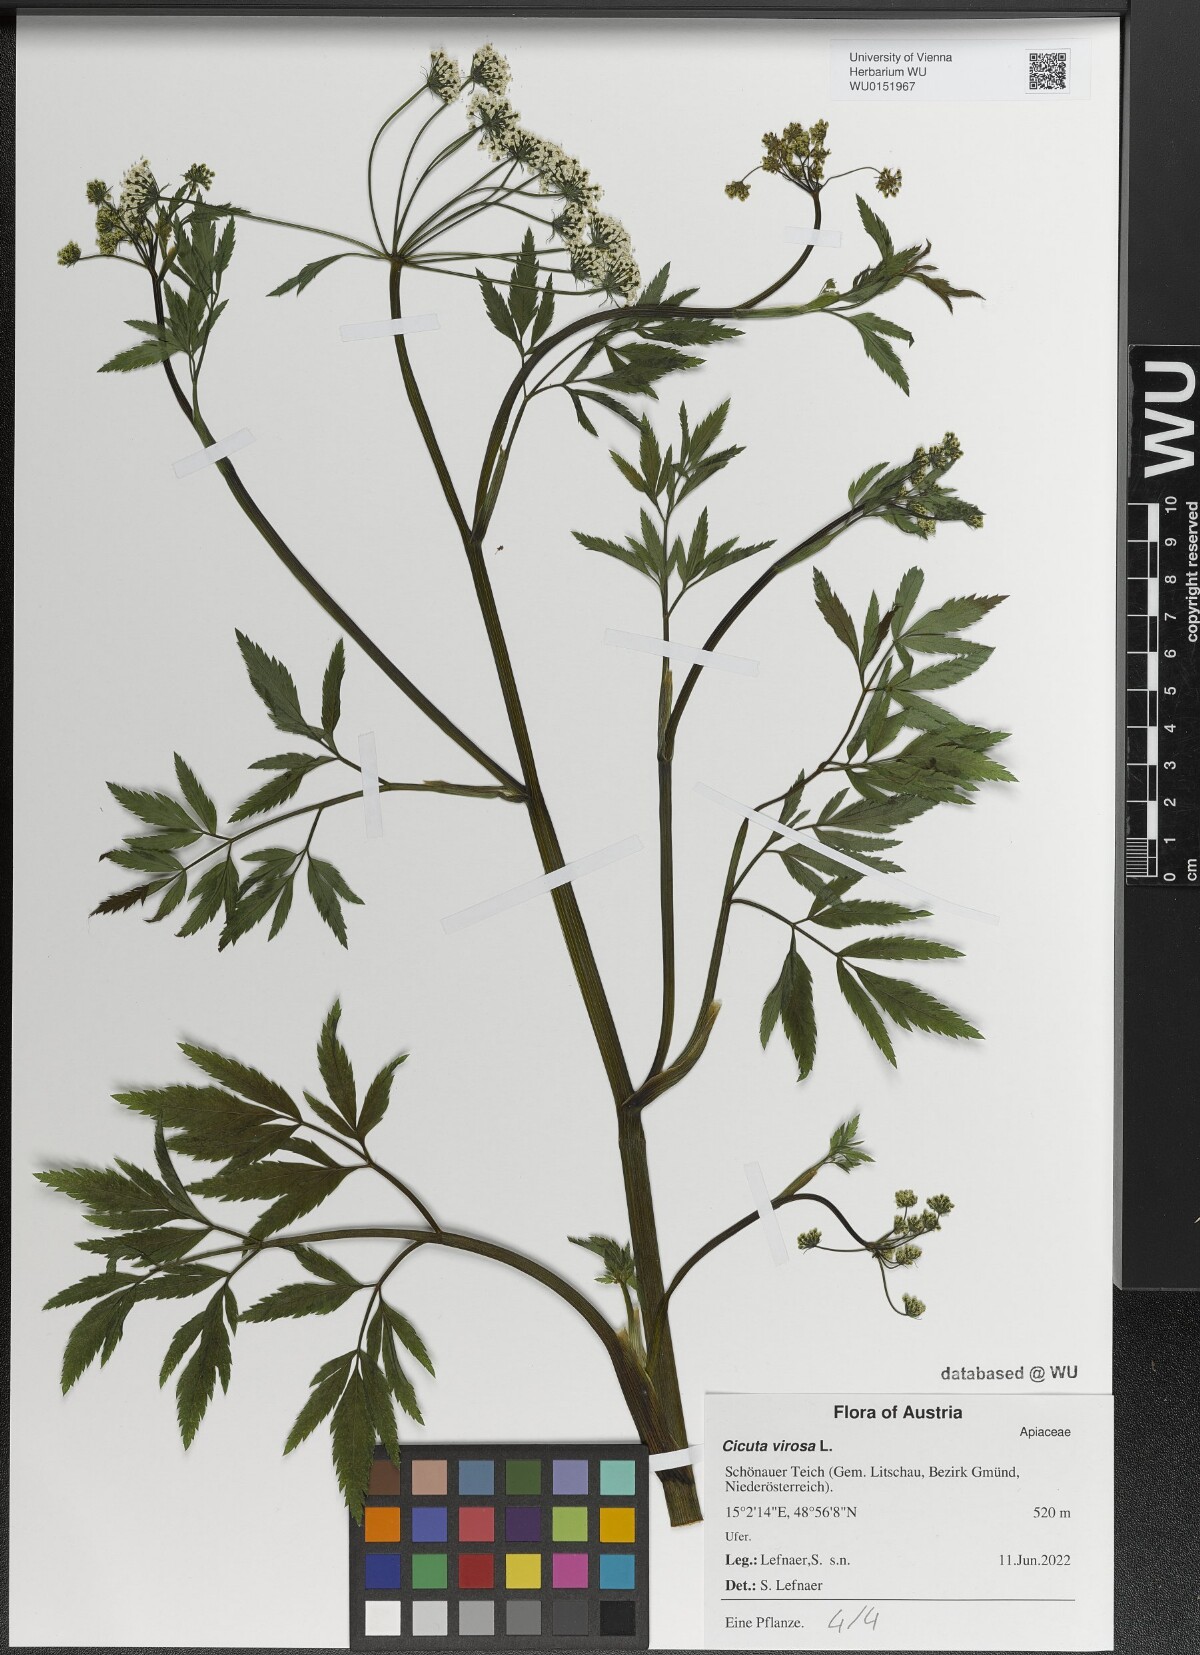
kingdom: Plantae
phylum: Tracheophyta
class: Magnoliopsida
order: Apiales
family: Apiaceae
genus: Cicuta
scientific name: Cicuta virosa
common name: Cowbane
